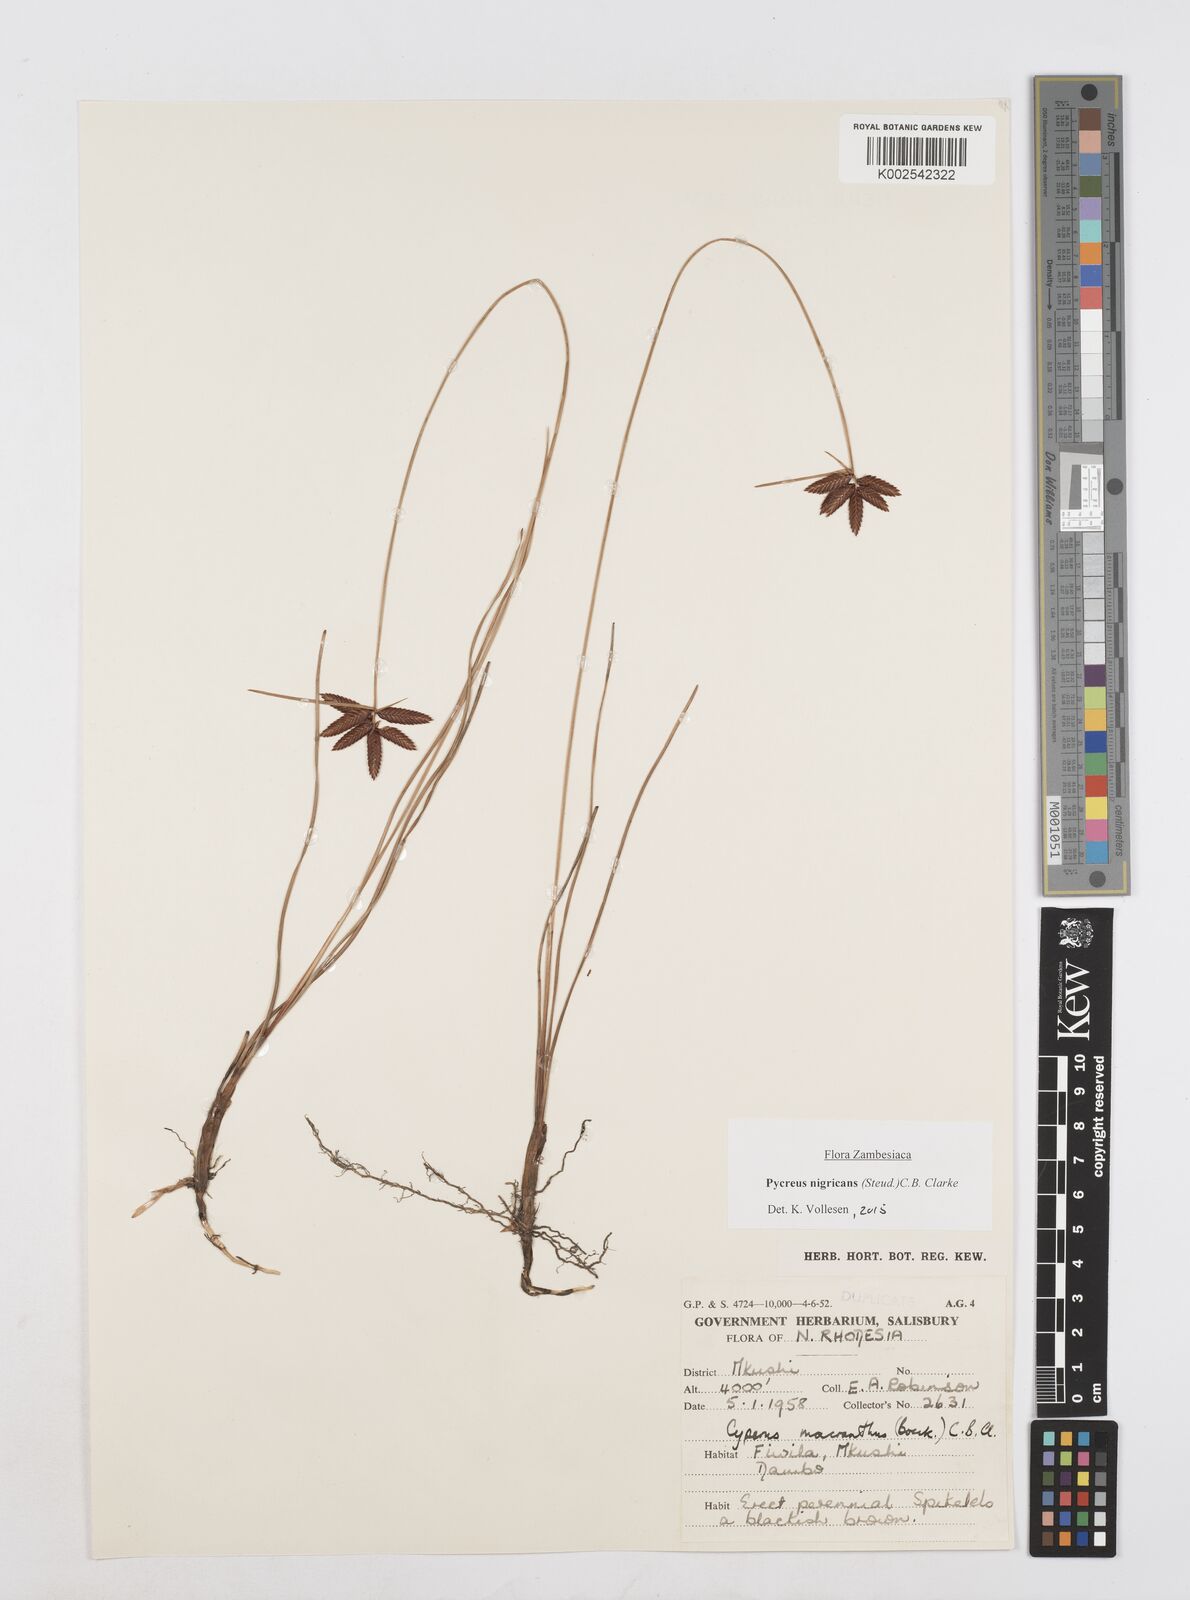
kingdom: Plantae
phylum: Tracheophyta
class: Liliopsida
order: Poales
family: Cyperaceae
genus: Cyperus
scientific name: Cyperus nigricans
